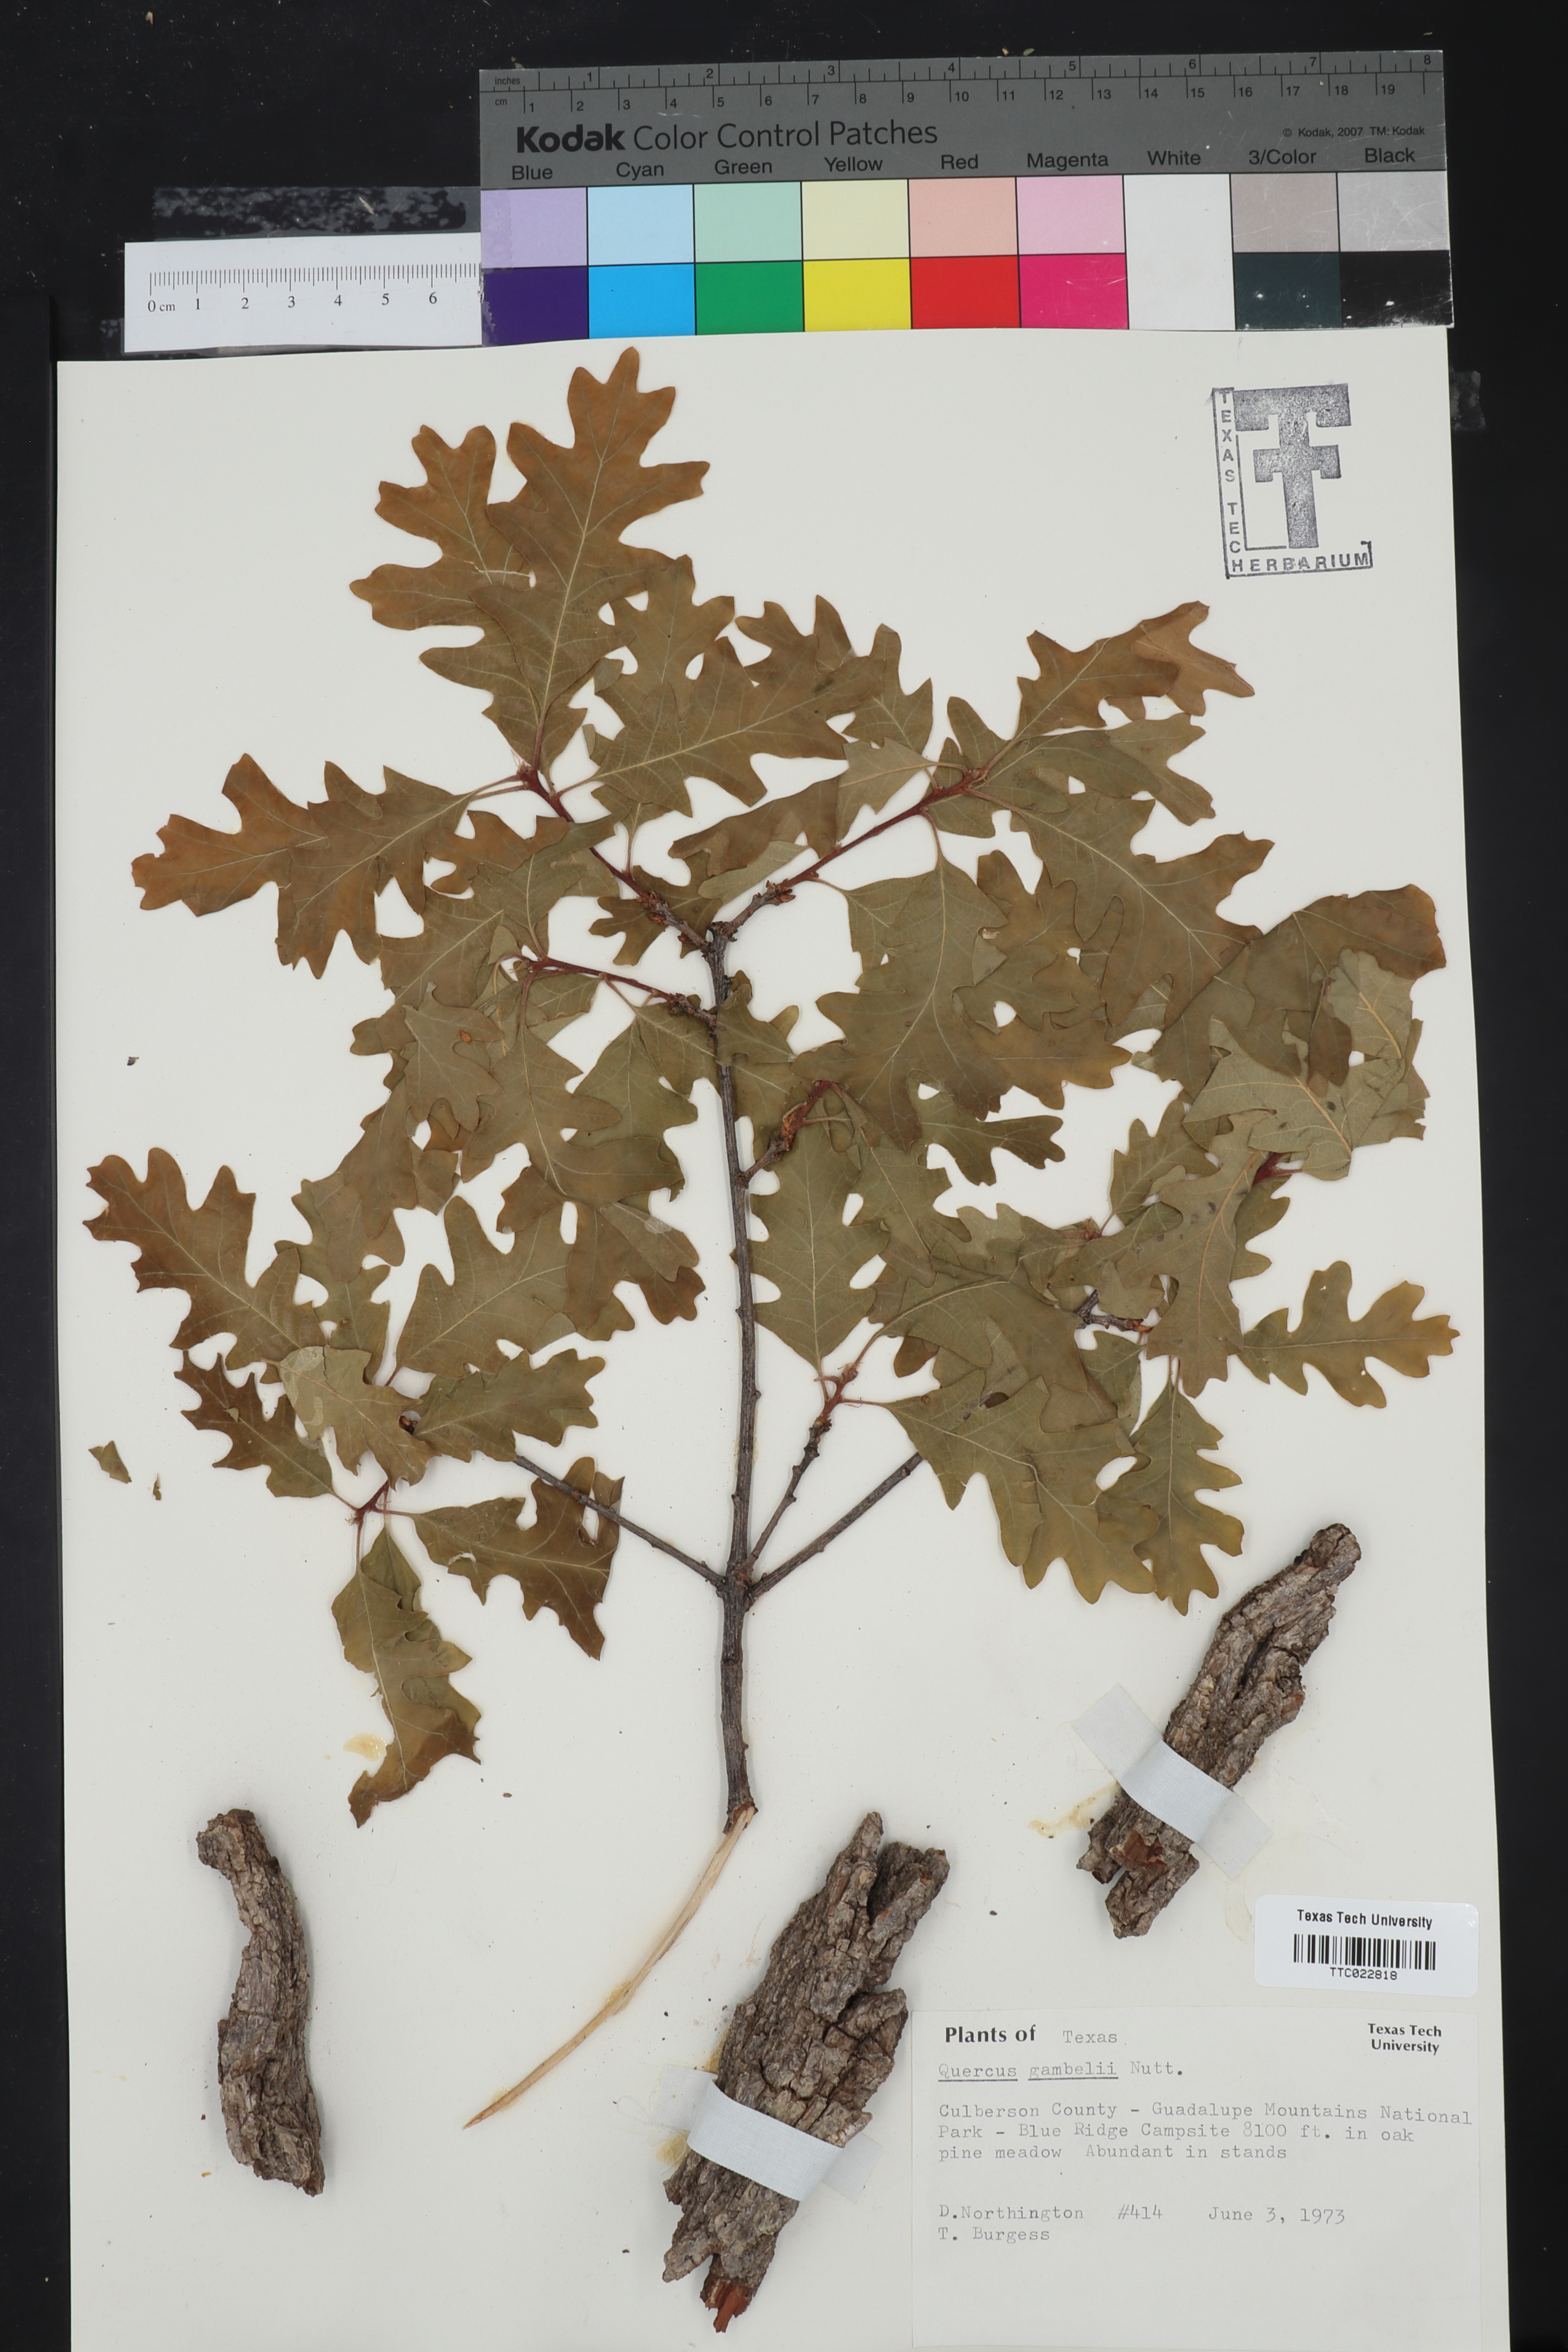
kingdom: Plantae
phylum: Tracheophyta
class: Magnoliopsida
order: Fagales
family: Fagaceae
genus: Quercus
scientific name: Quercus gambelii
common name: Gambel oak
